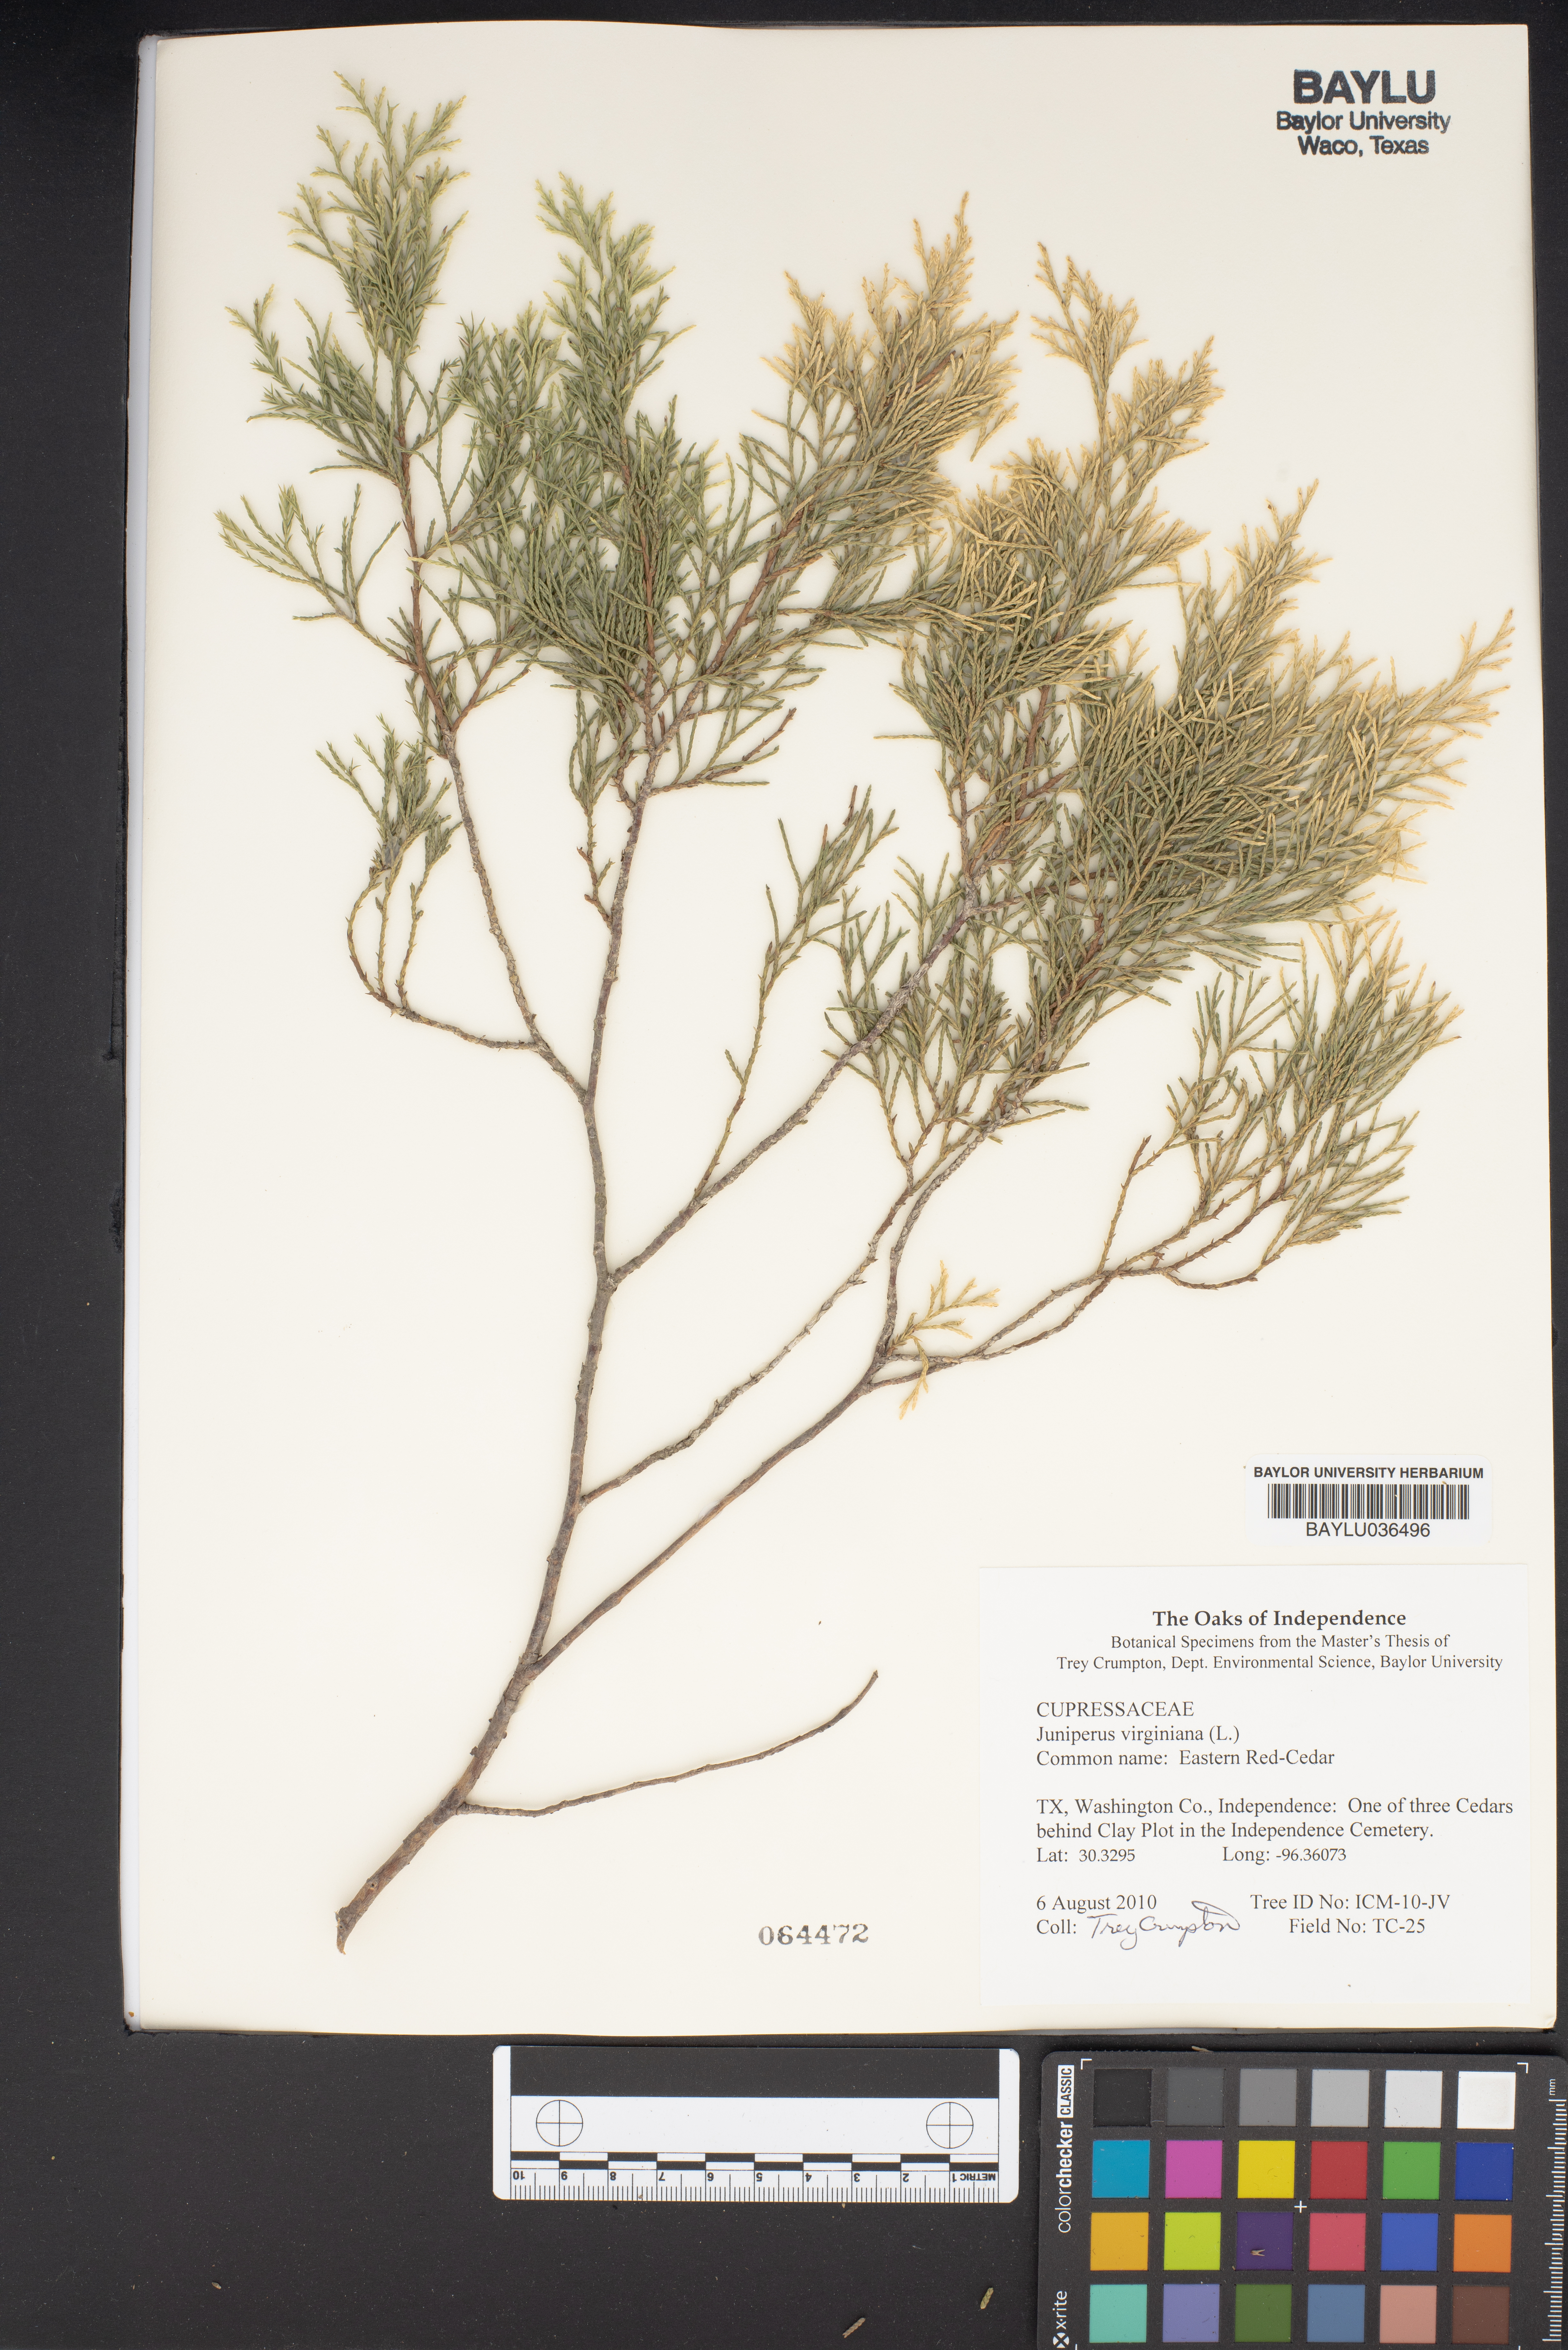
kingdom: Plantae
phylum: Tracheophyta
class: Pinopsida
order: Pinales
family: Cupressaceae
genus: Juniperus
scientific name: Juniperus virginiana
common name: Red juniper
